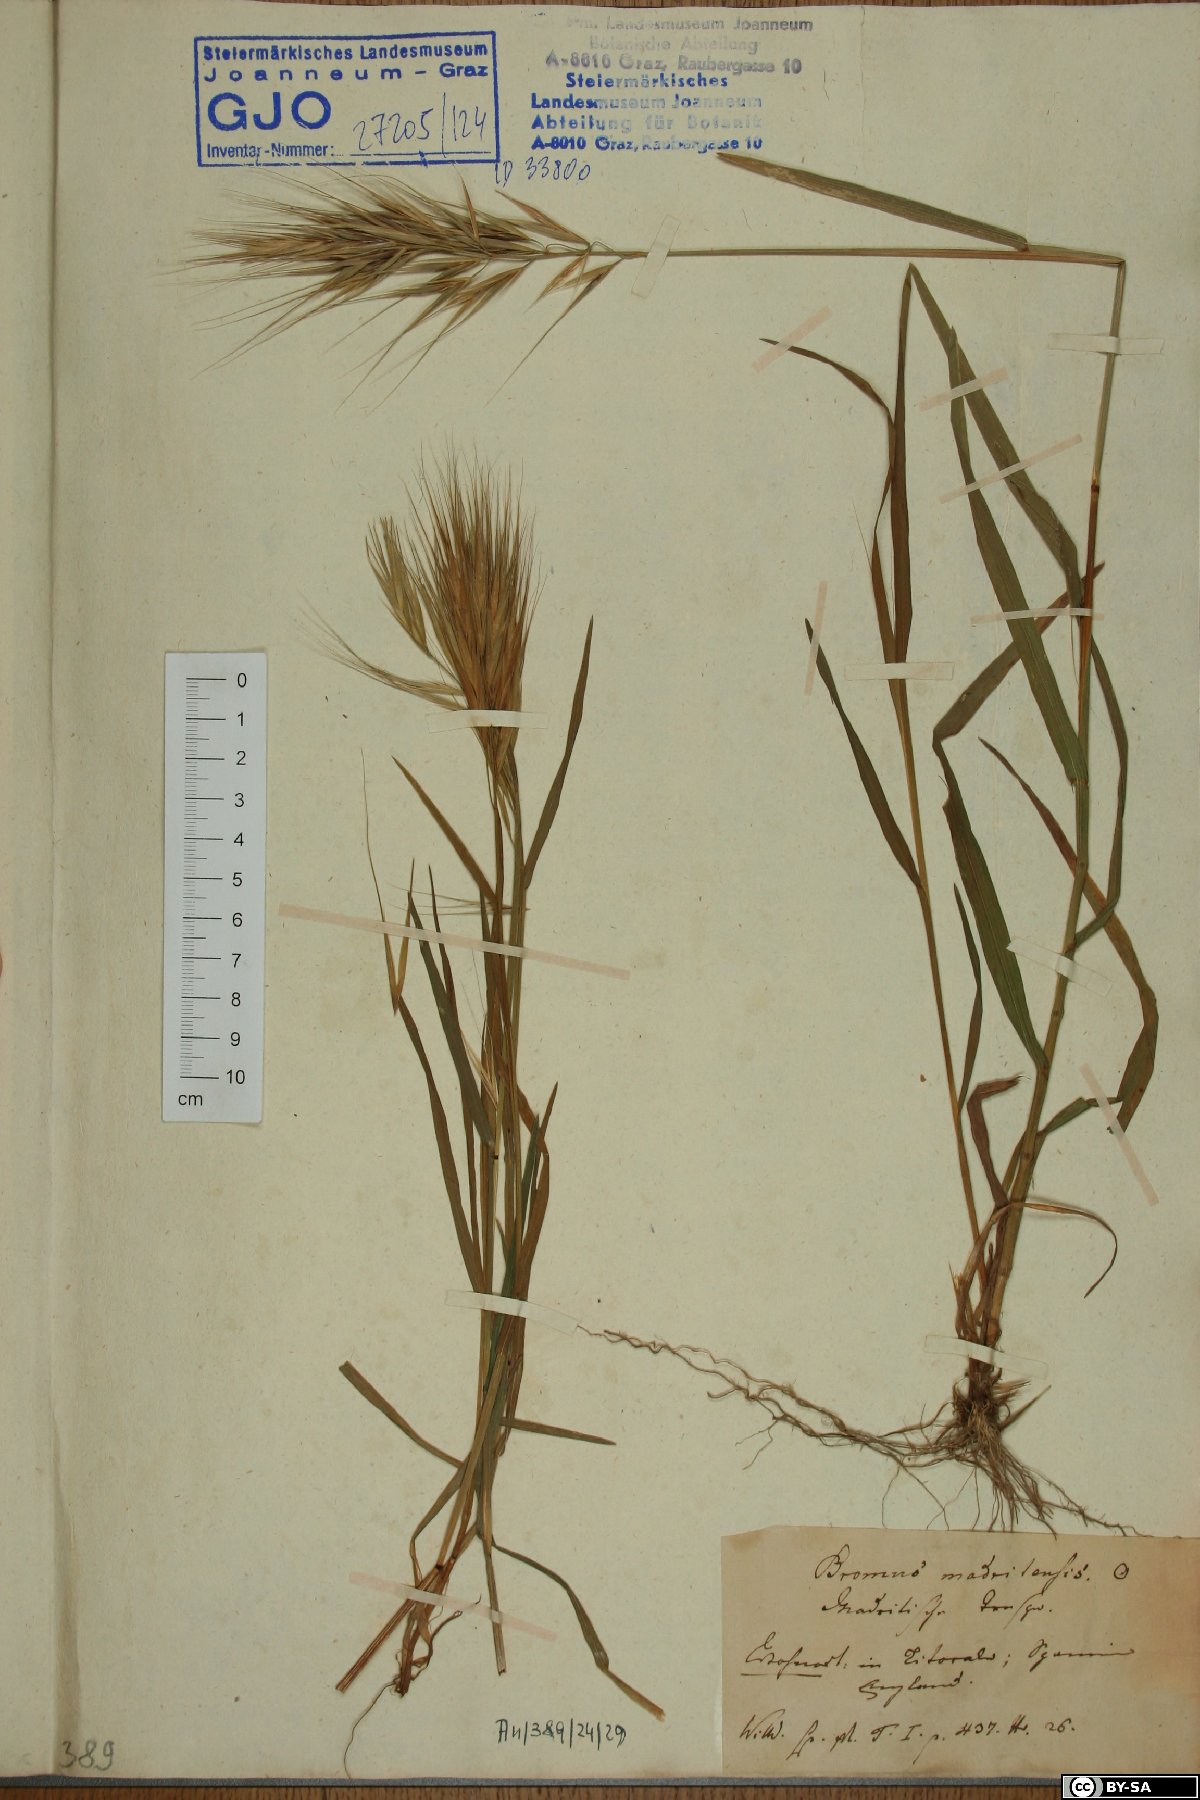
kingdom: Plantae
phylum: Tracheophyta
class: Liliopsida
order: Poales
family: Poaceae
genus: Bromus
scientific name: Bromus diandrus
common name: Ripgut brome
